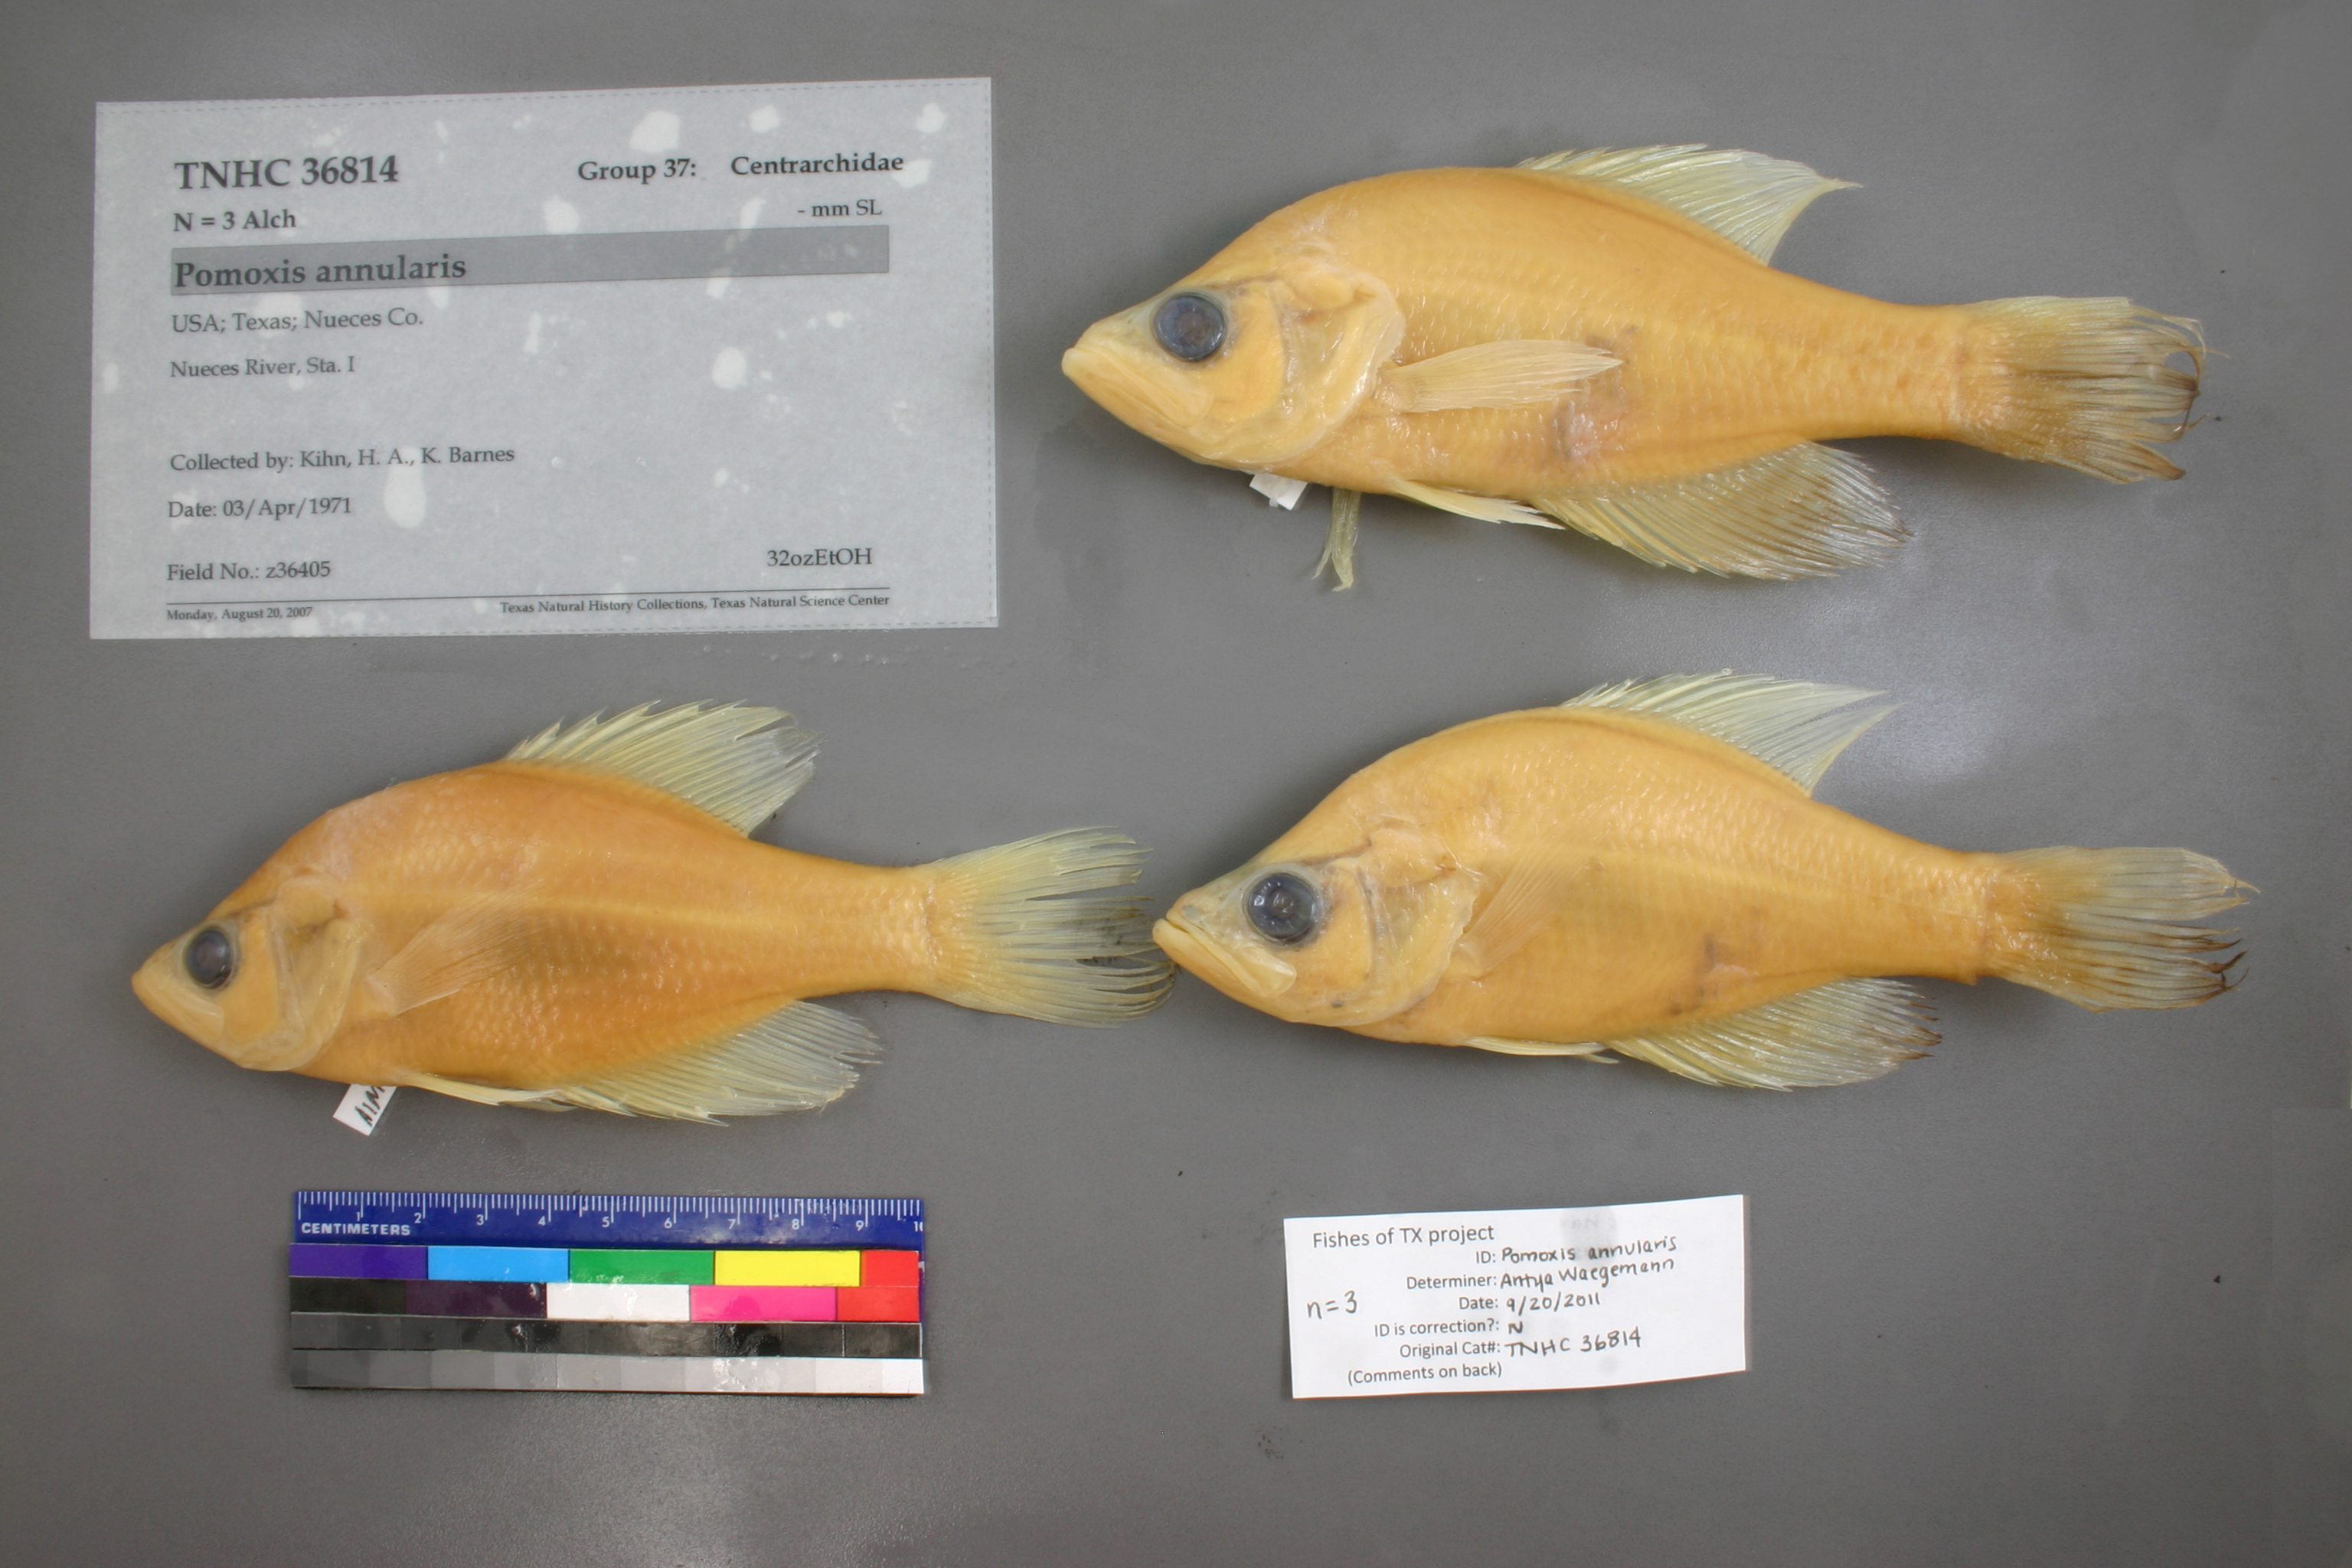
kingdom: Animalia
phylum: Chordata
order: Perciformes
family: Centrarchidae
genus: Pomoxis
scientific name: Pomoxis annularis
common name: White crappie
